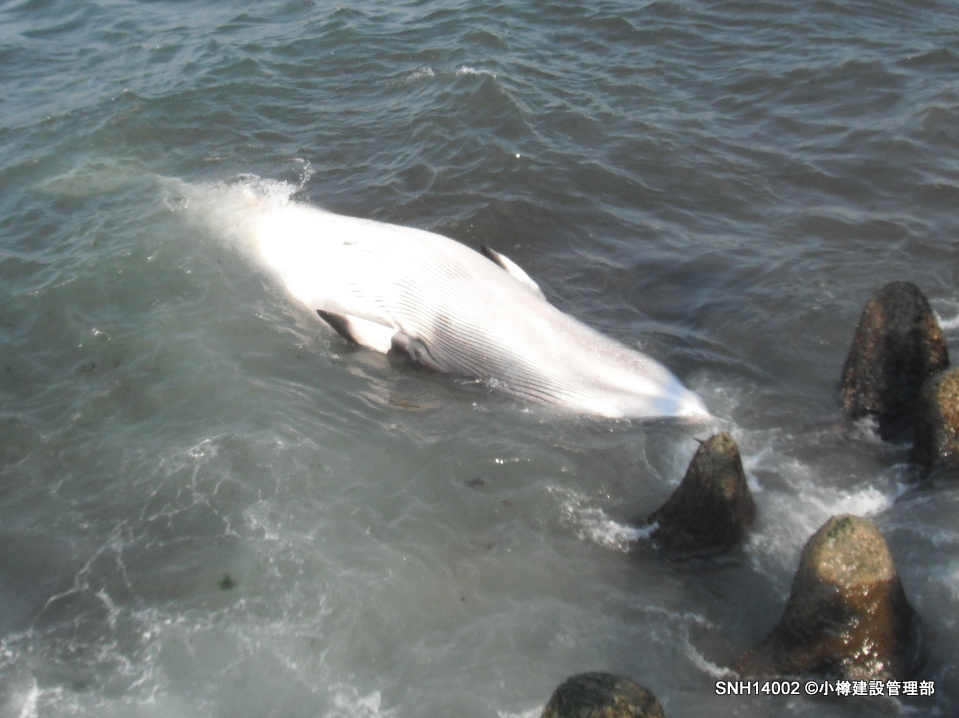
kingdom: Animalia
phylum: Chordata
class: Mammalia
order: Cetacea
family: Balaenopteridae
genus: Balaenoptera
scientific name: Balaenoptera acutorostrata
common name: Minke whale
